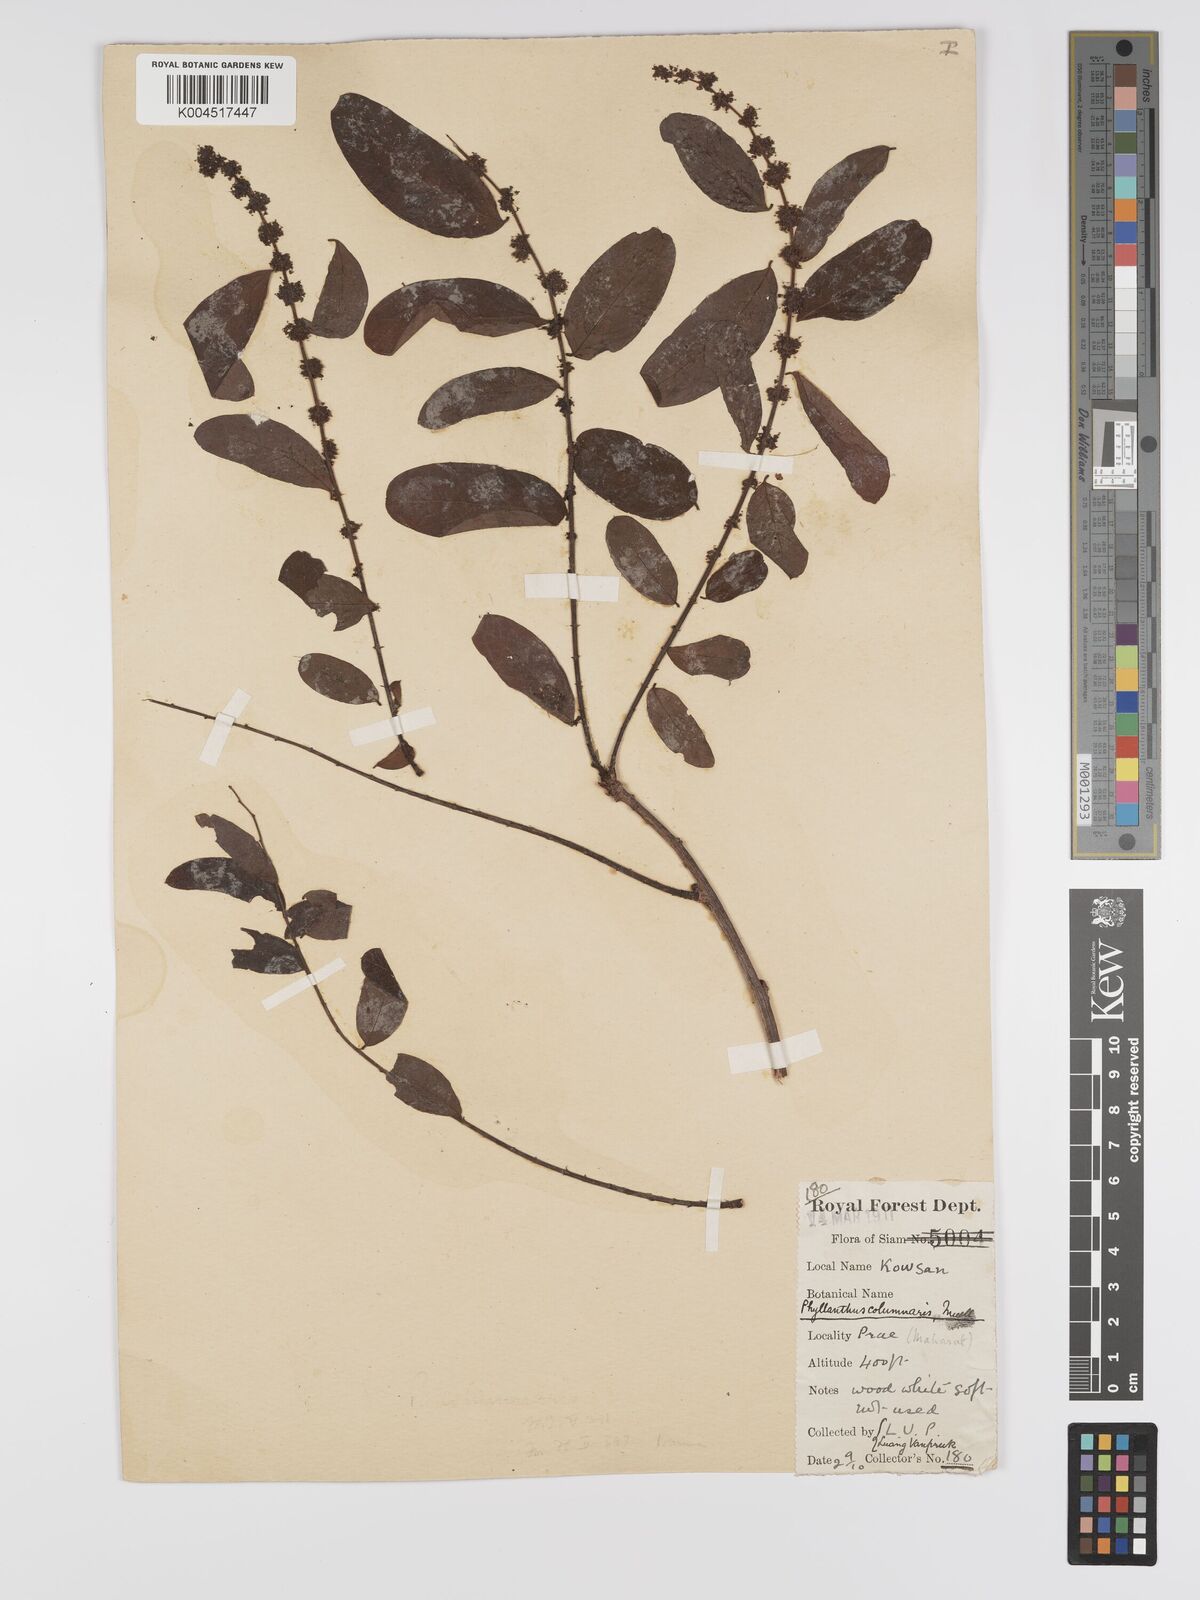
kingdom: Plantae
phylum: Tracheophyta
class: Magnoliopsida
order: Malpighiales
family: Phyllanthaceae
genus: Phyllanthus
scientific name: Phyllanthus
